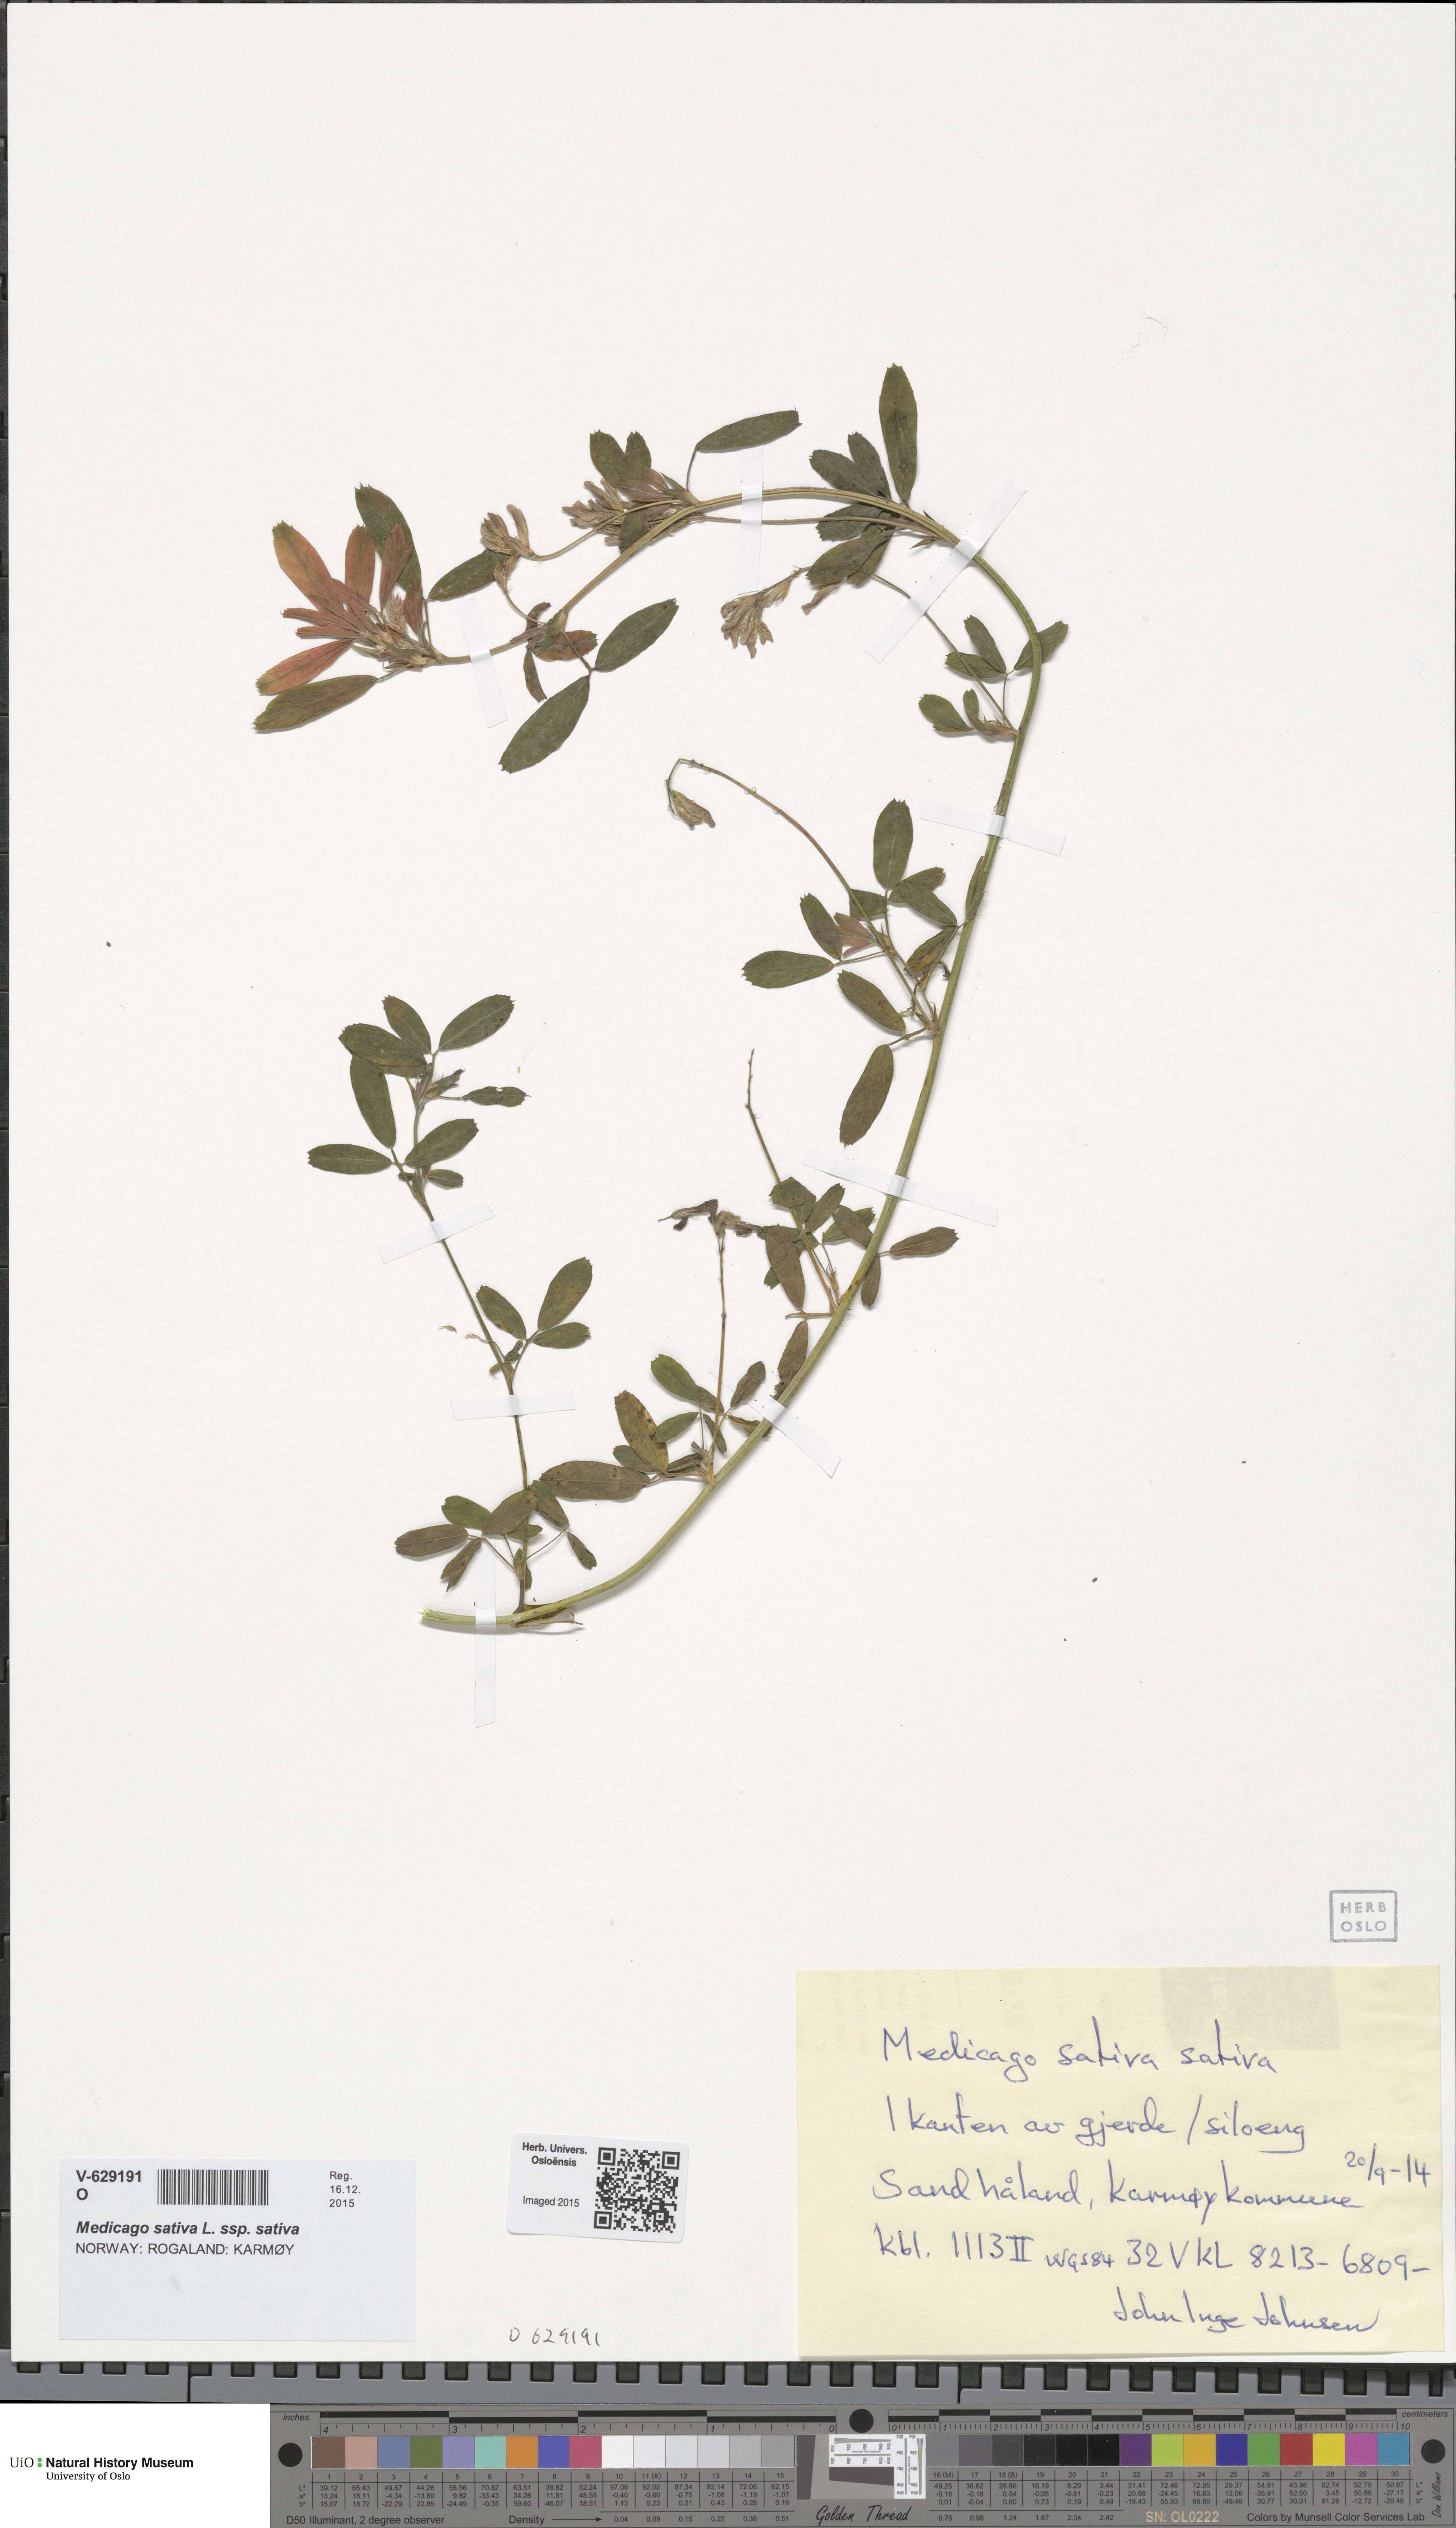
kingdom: Plantae
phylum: Tracheophyta
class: Magnoliopsida
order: Fabales
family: Fabaceae
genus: Medicago
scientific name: Medicago sativa
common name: Alfalfa
